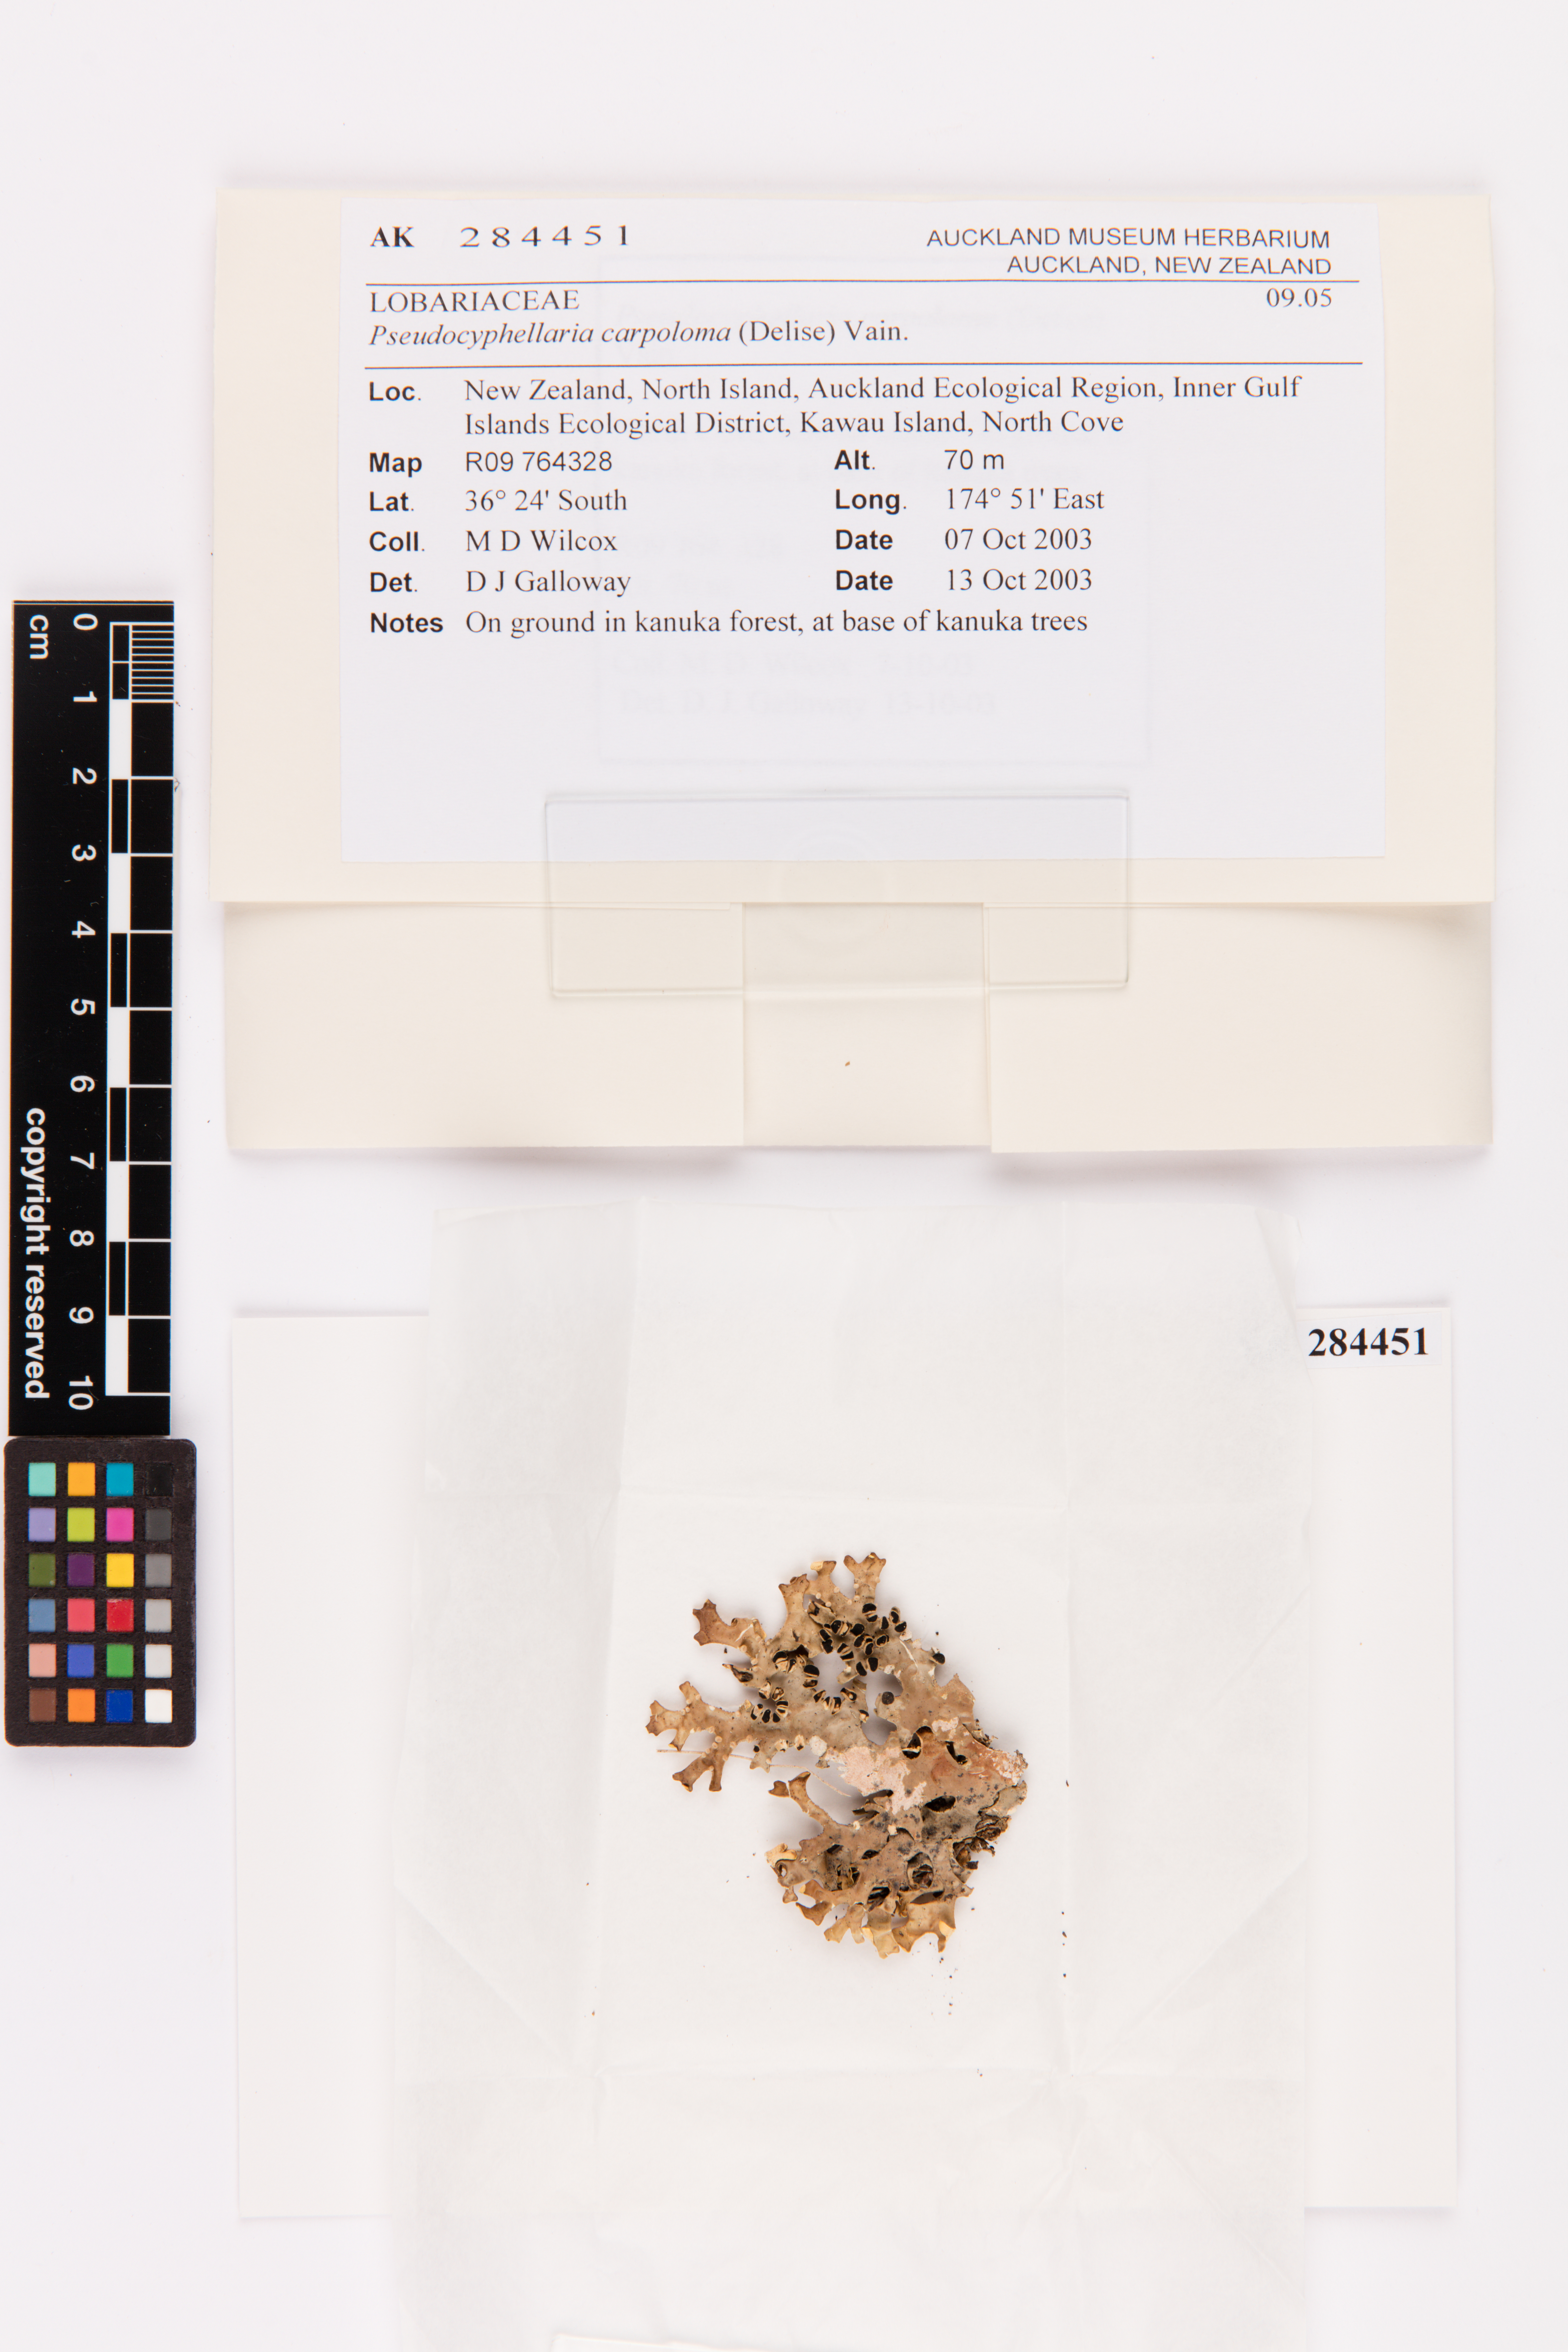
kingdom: Fungi
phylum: Ascomycota
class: Lecanoromycetes
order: Peltigerales
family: Lobariaceae
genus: Pseudocyphellaria
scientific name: Pseudocyphellaria carpoloma
